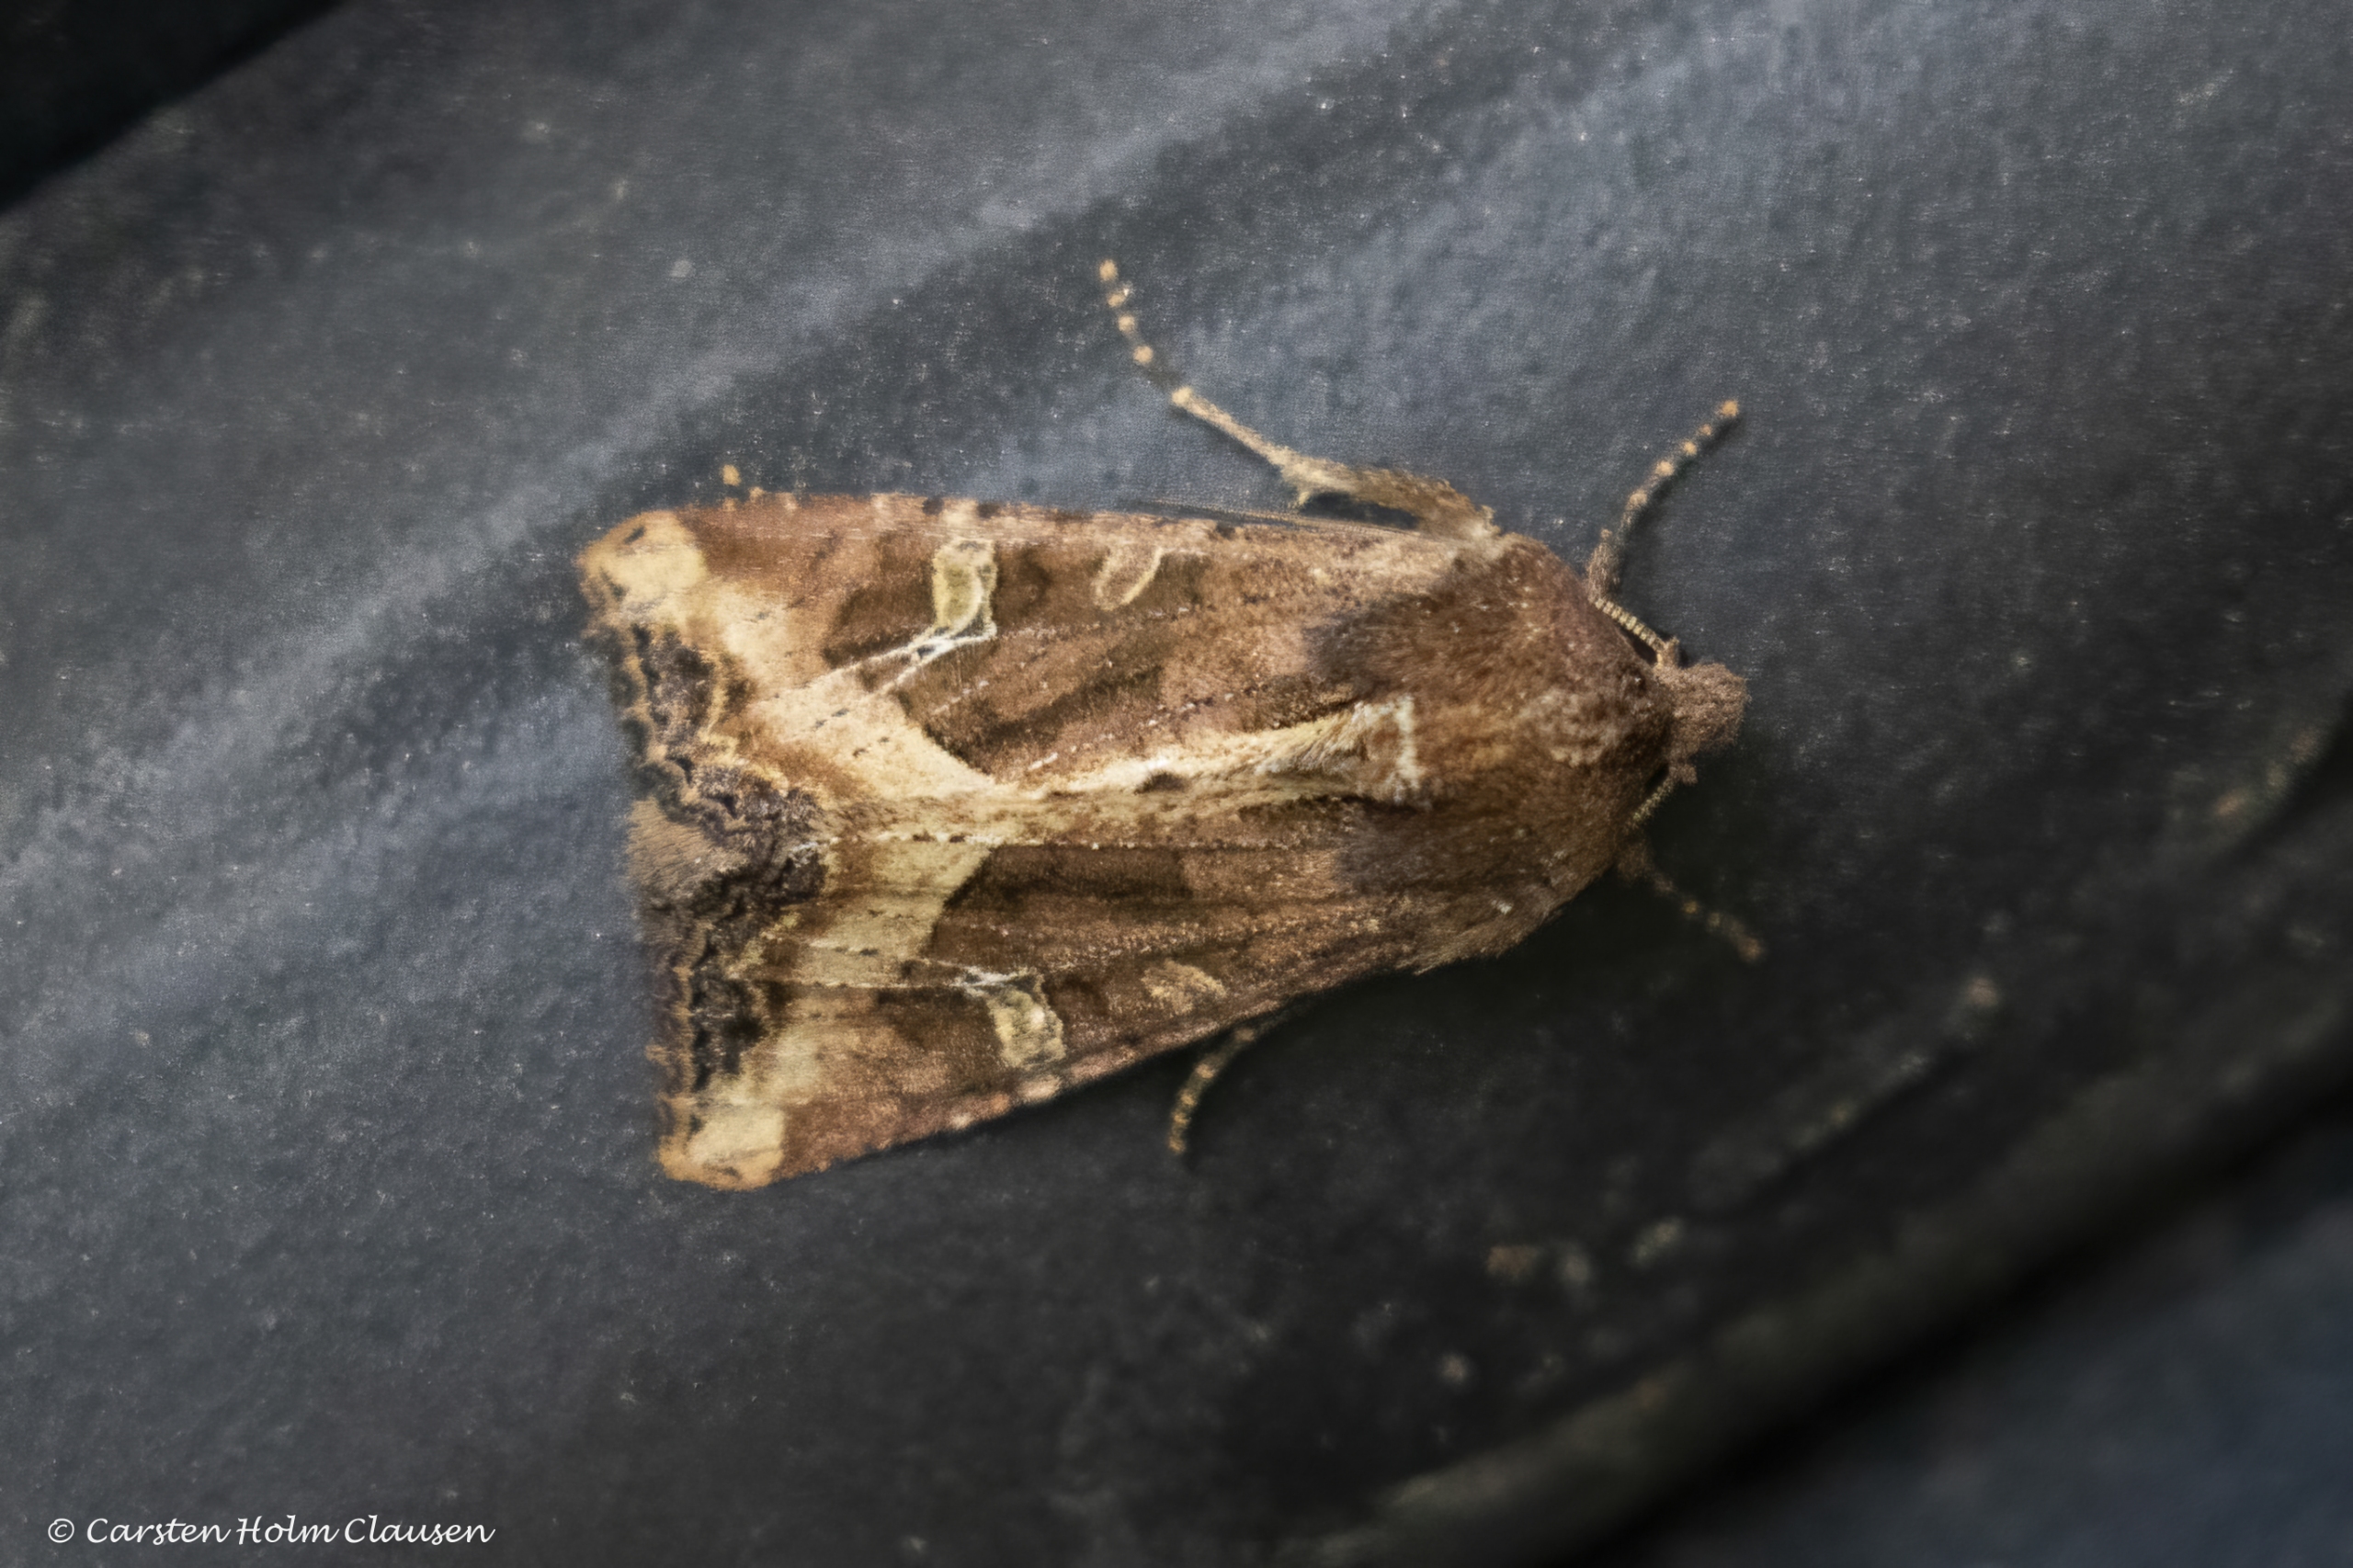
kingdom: Animalia
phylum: Arthropoda
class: Insecta
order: Lepidoptera
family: Noctuidae
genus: Helotropha
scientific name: Helotropha leucostigma
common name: Brun engugle
